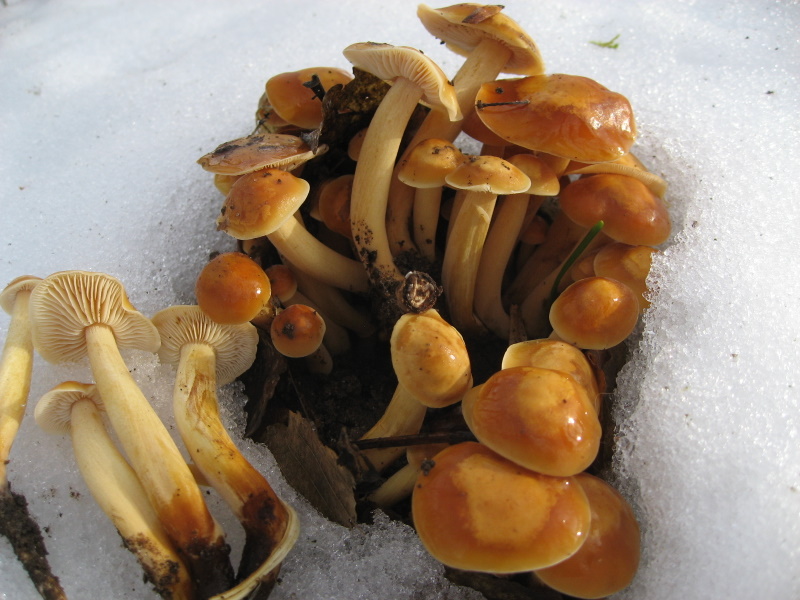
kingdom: Fungi
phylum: Basidiomycota
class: Agaricomycetes
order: Agaricales
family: Physalacriaceae
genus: Flammulina
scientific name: Flammulina velutipes
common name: gul fløjlsfod
